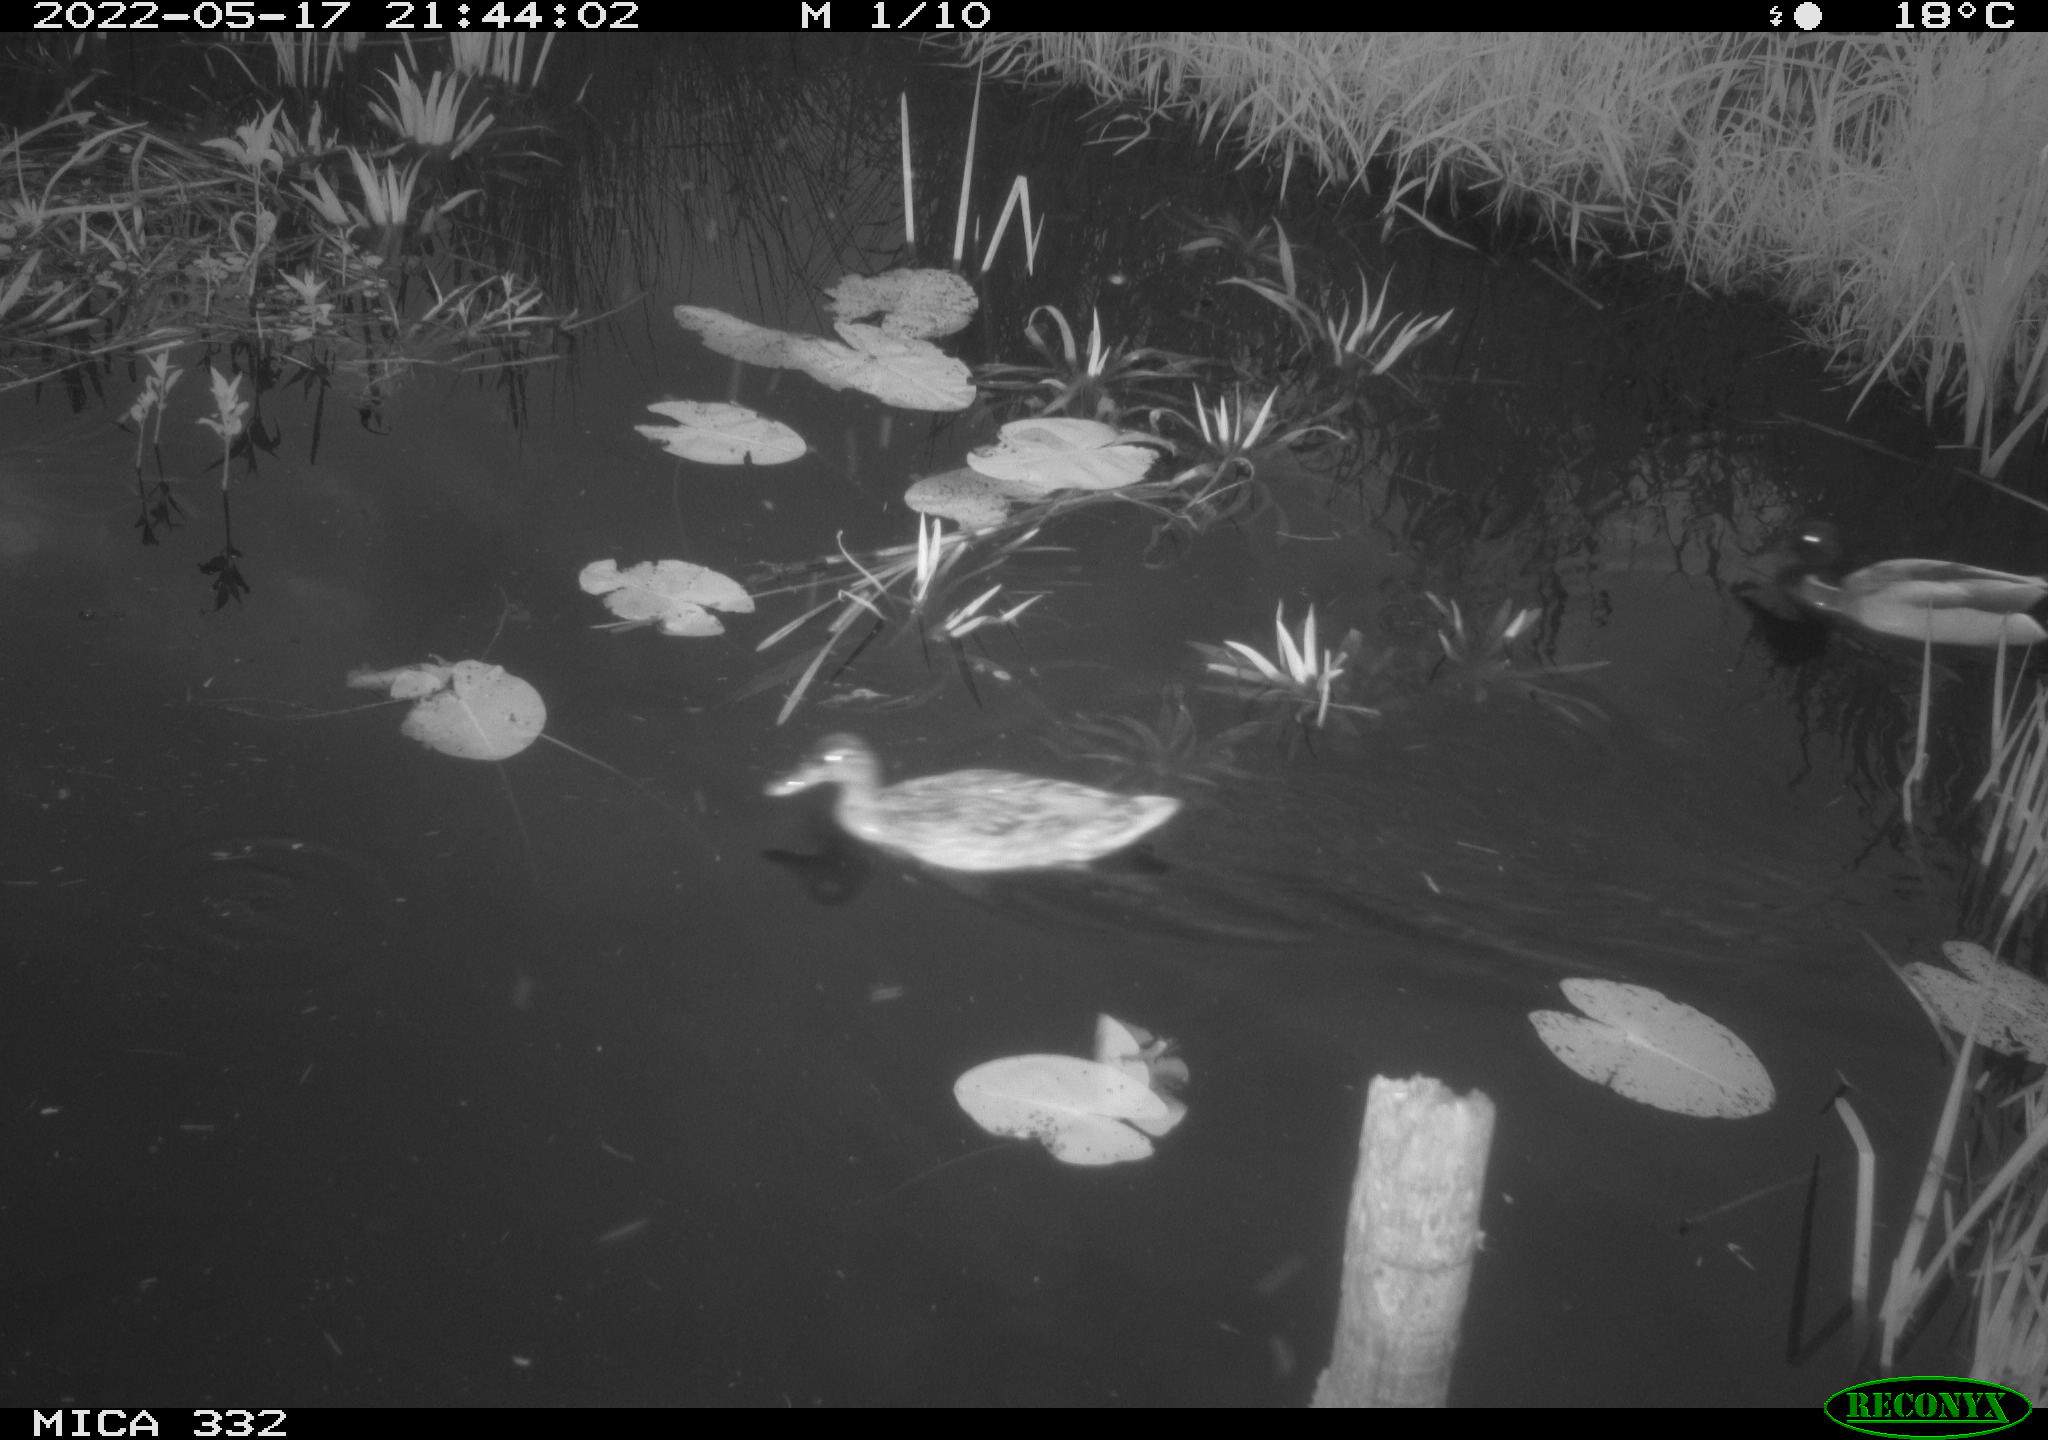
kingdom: Animalia
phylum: Chordata
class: Aves
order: Anseriformes
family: Anatidae
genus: Anas
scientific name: Anas platyrhynchos
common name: Mallard
